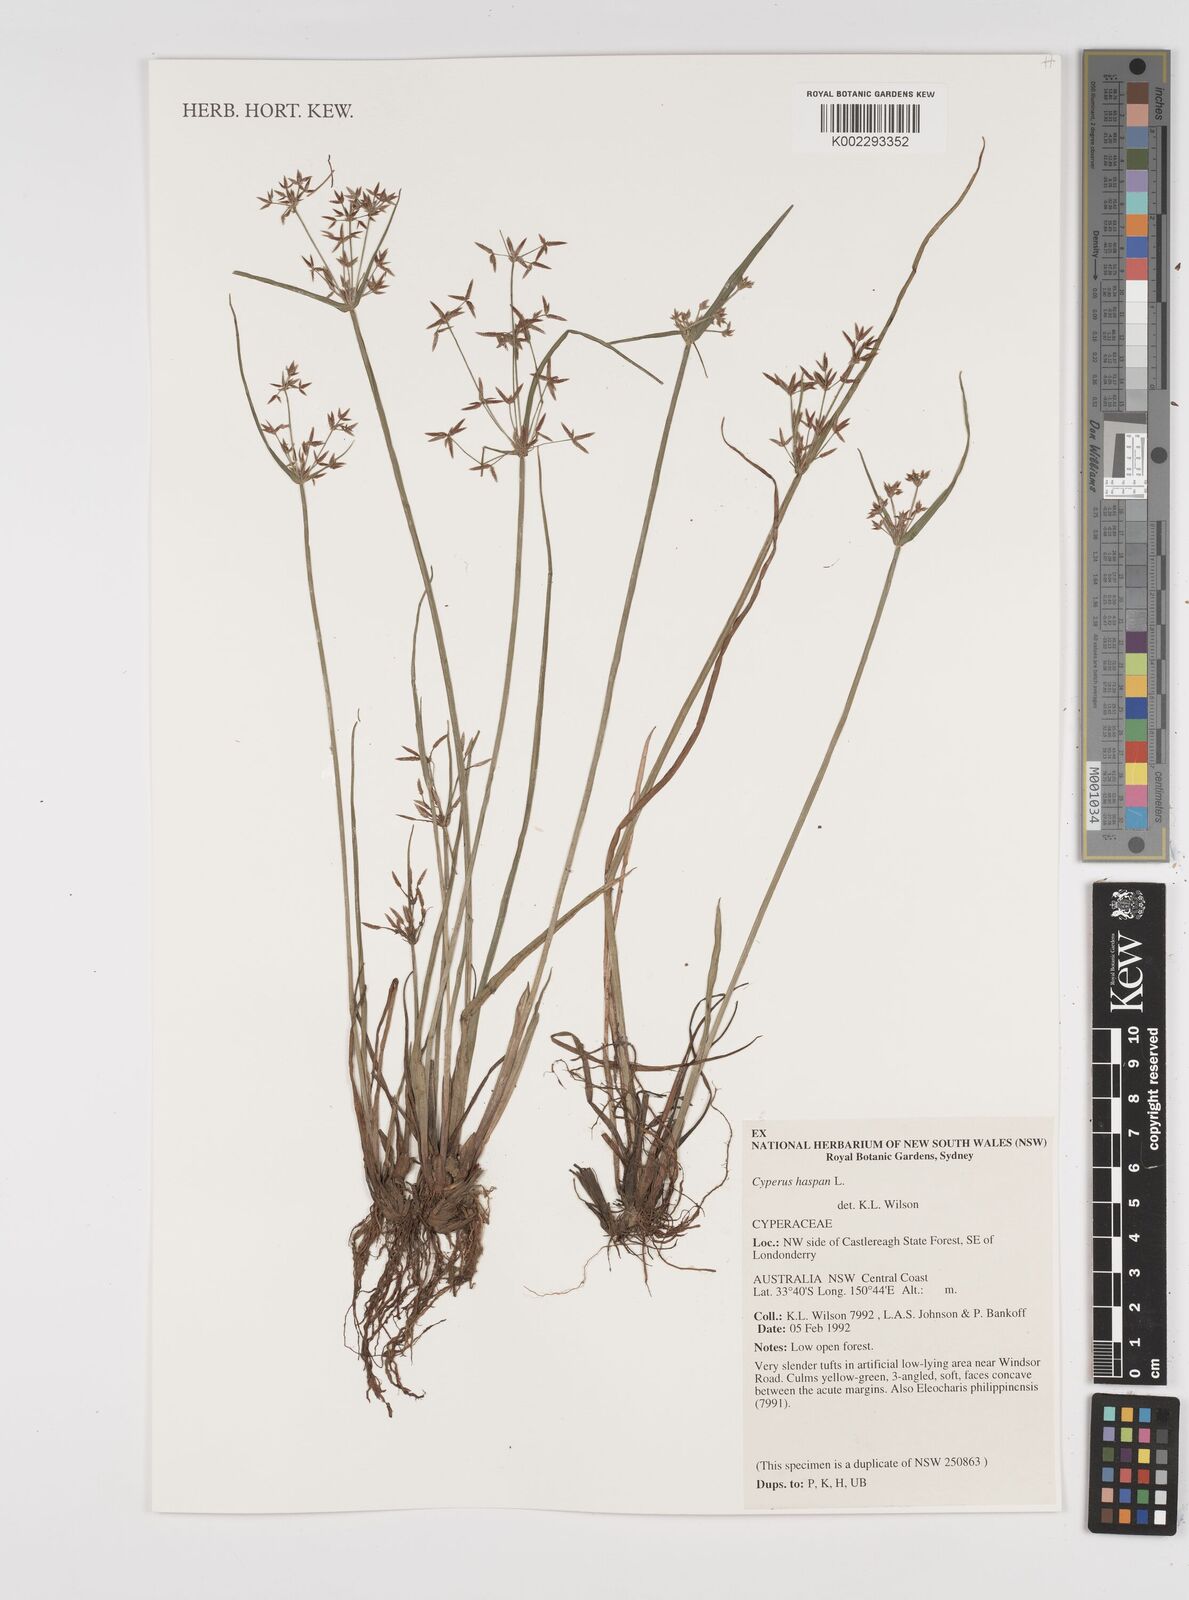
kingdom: Plantae
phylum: Tracheophyta
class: Liliopsida
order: Poales
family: Cyperaceae
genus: Cyperus
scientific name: Cyperus haspan
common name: Haspan flatsedge
